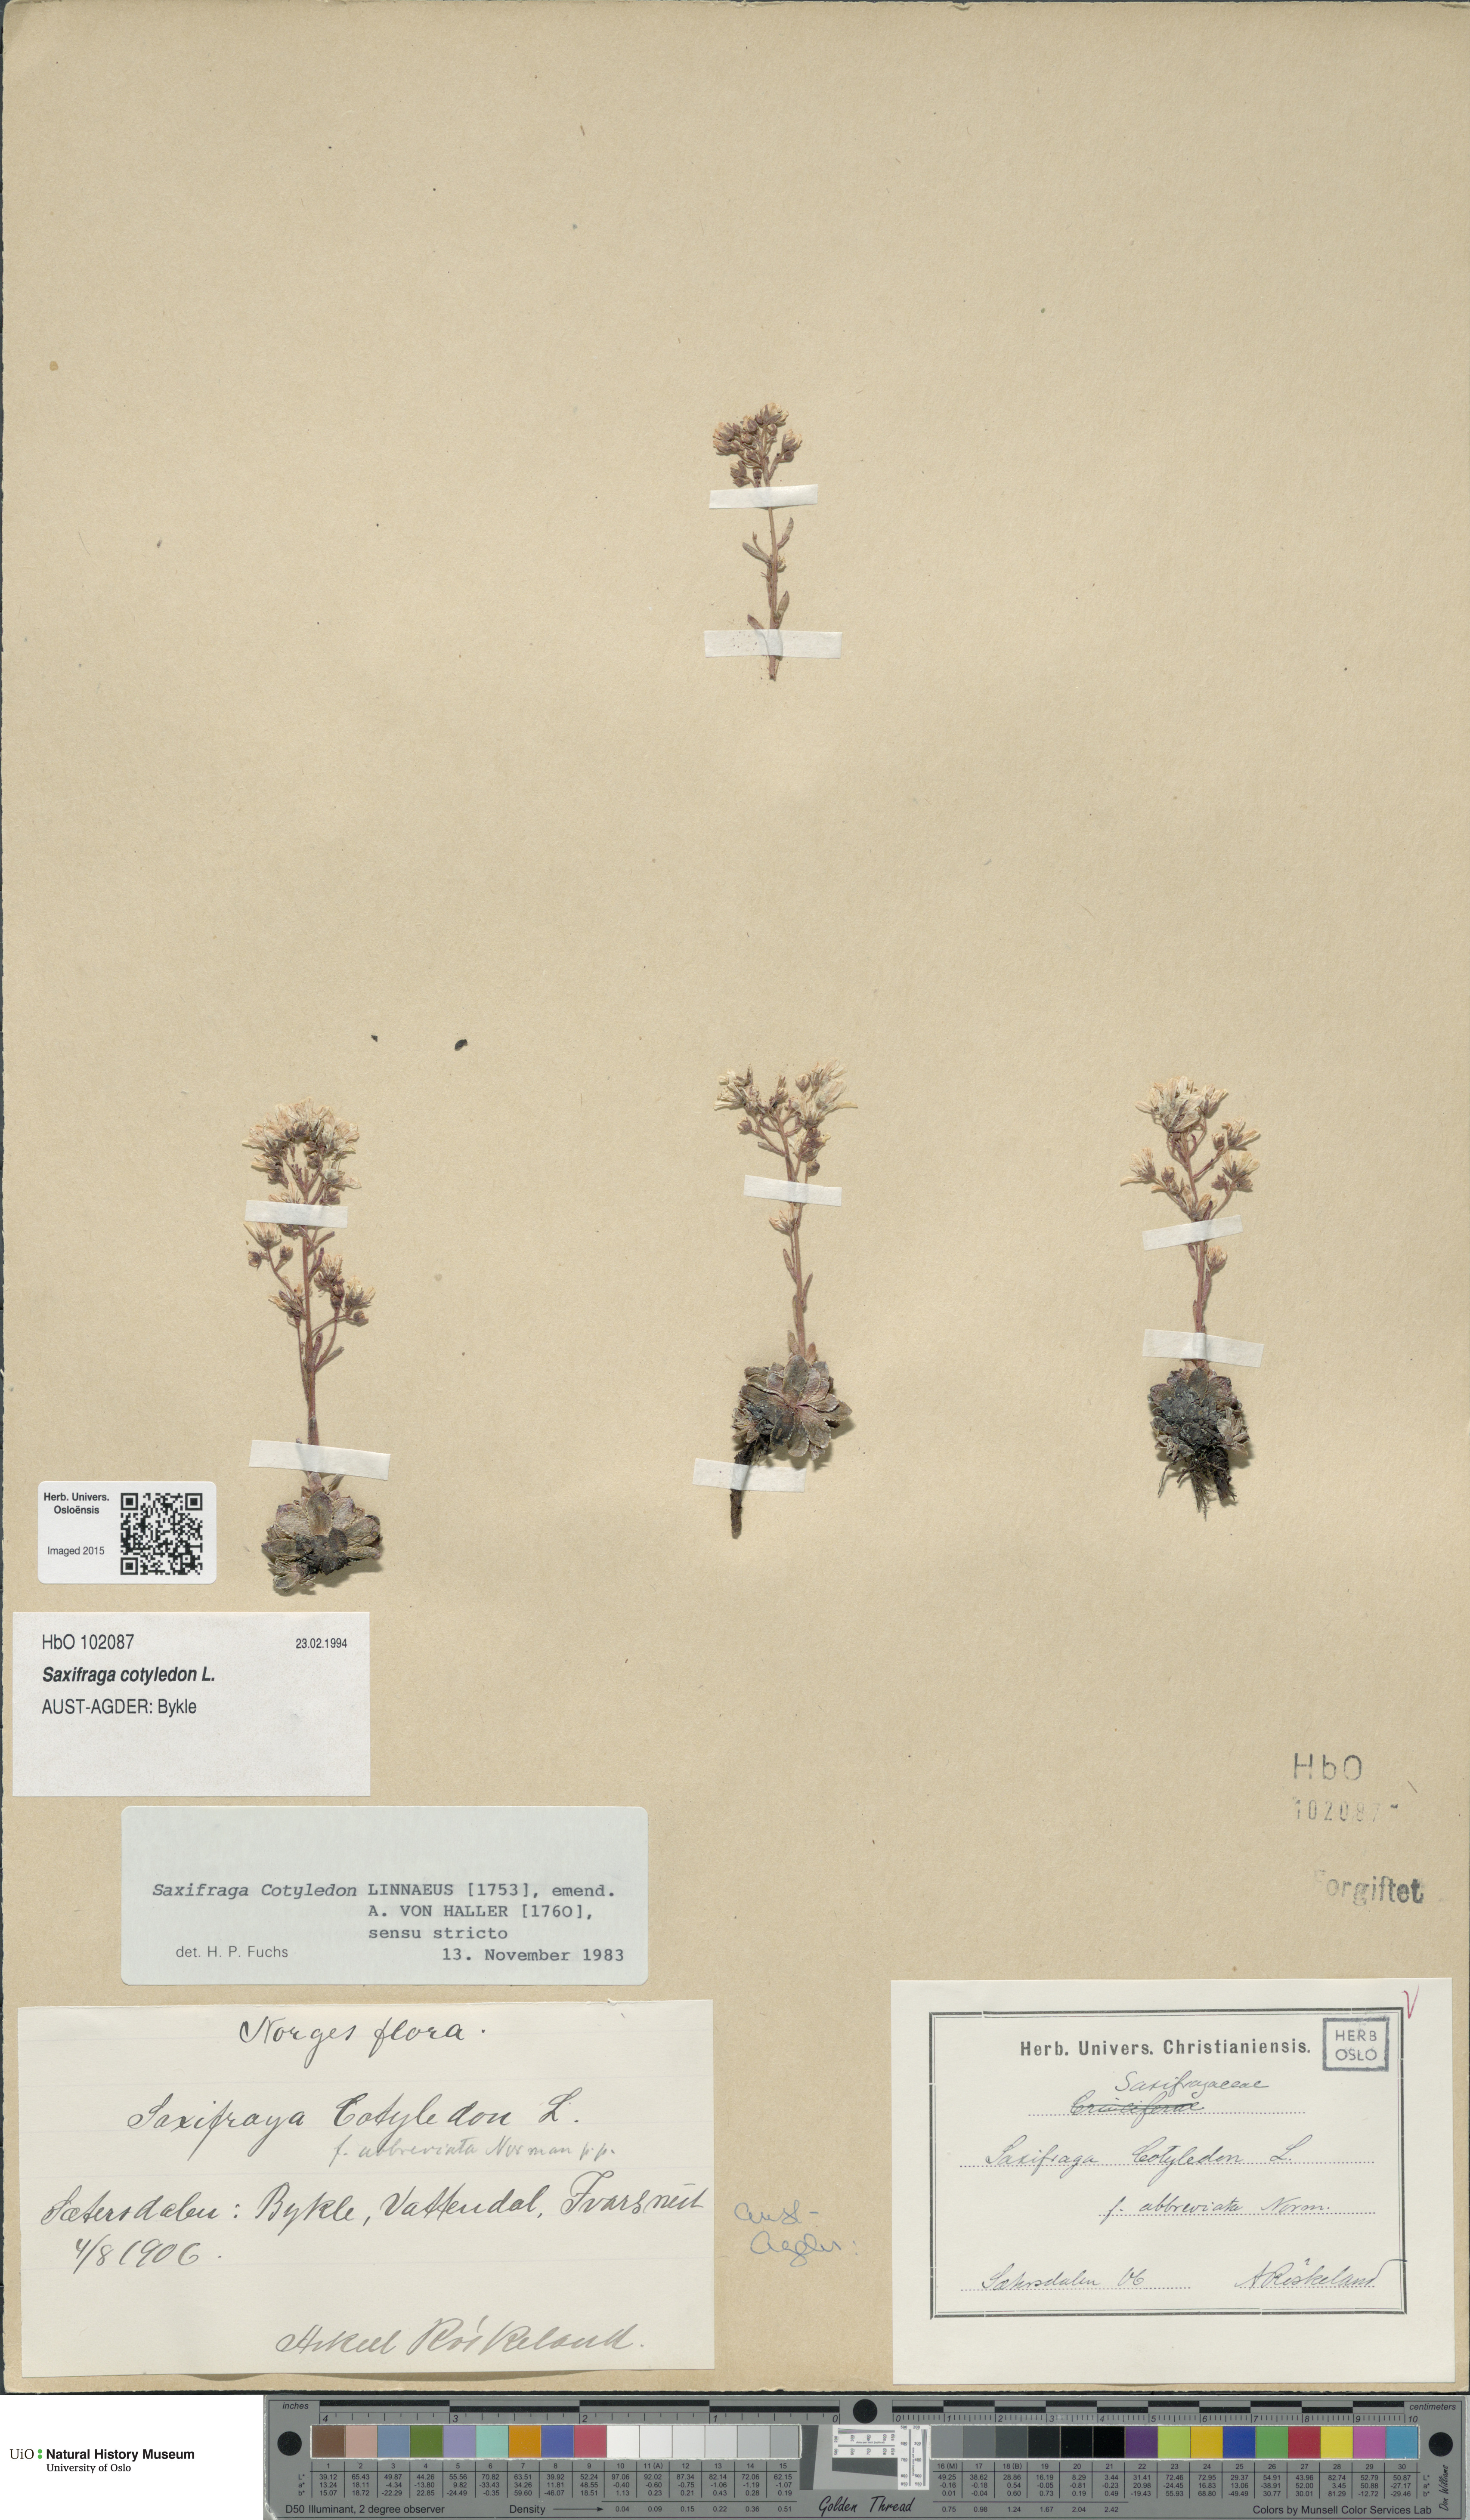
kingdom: Plantae
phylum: Tracheophyta
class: Magnoliopsida
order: Saxifragales
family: Saxifragaceae
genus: Saxifraga
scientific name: Saxifraga cotyledon
